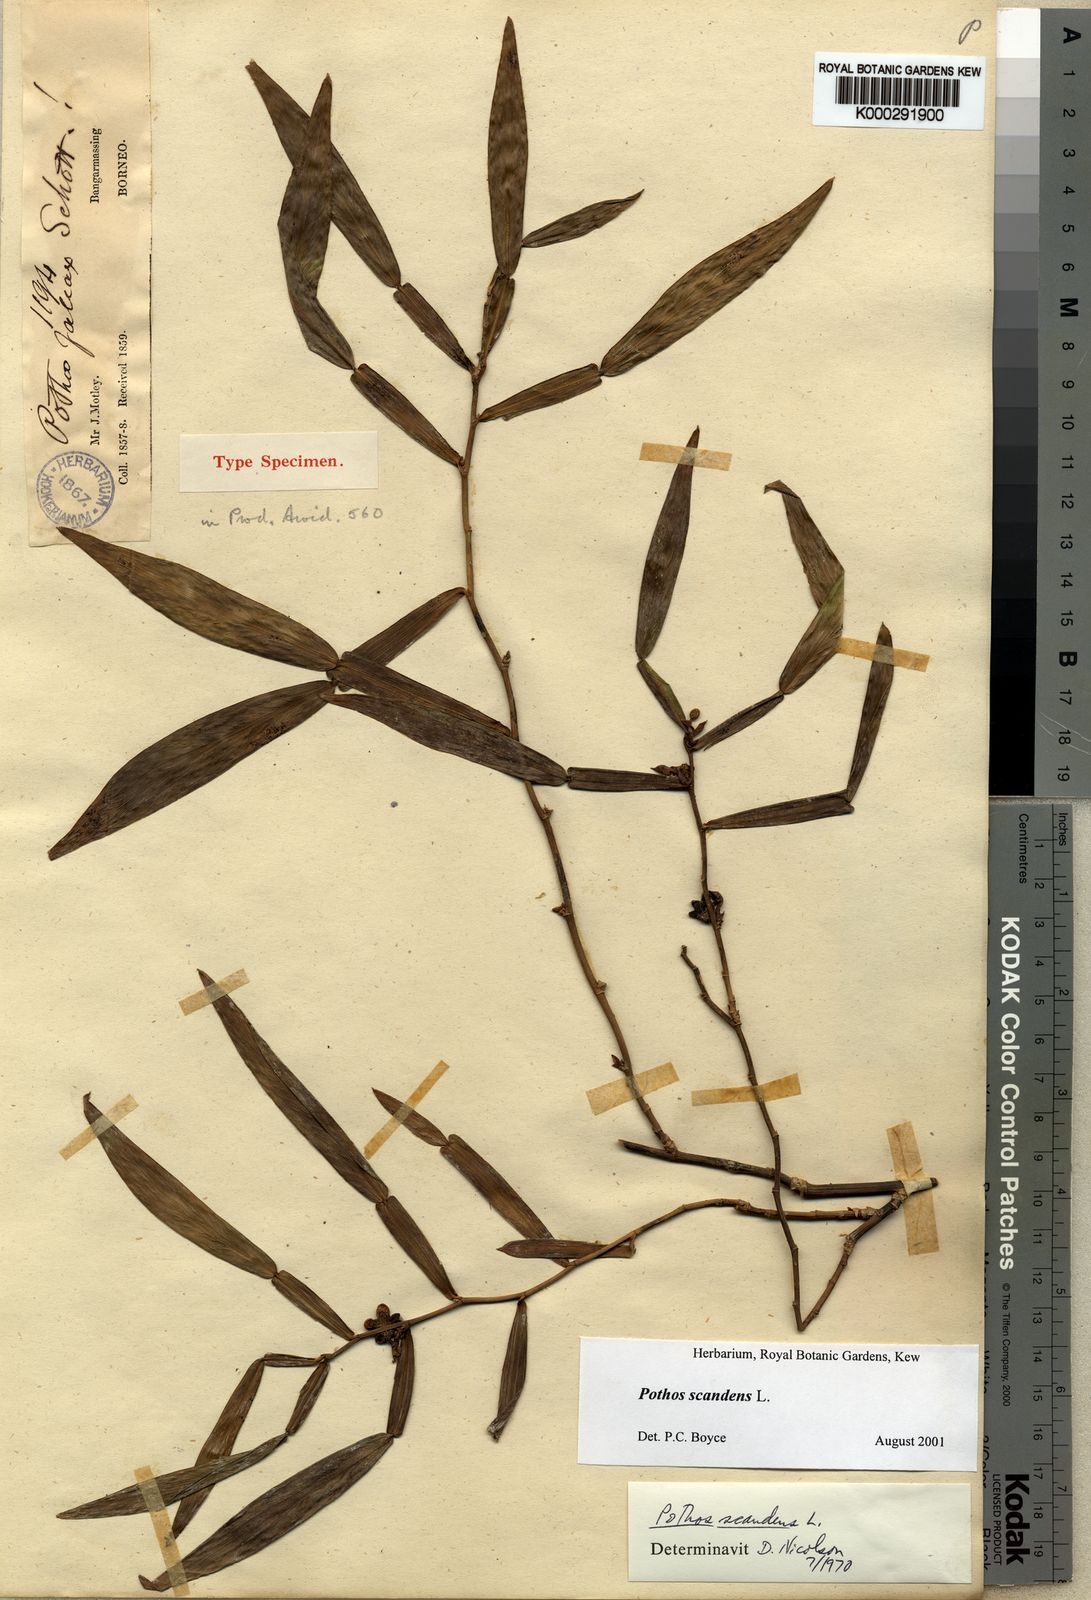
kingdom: Plantae
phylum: Tracheophyta
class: Liliopsida
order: Alismatales
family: Araceae
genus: Pothos
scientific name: Pothos scandens
